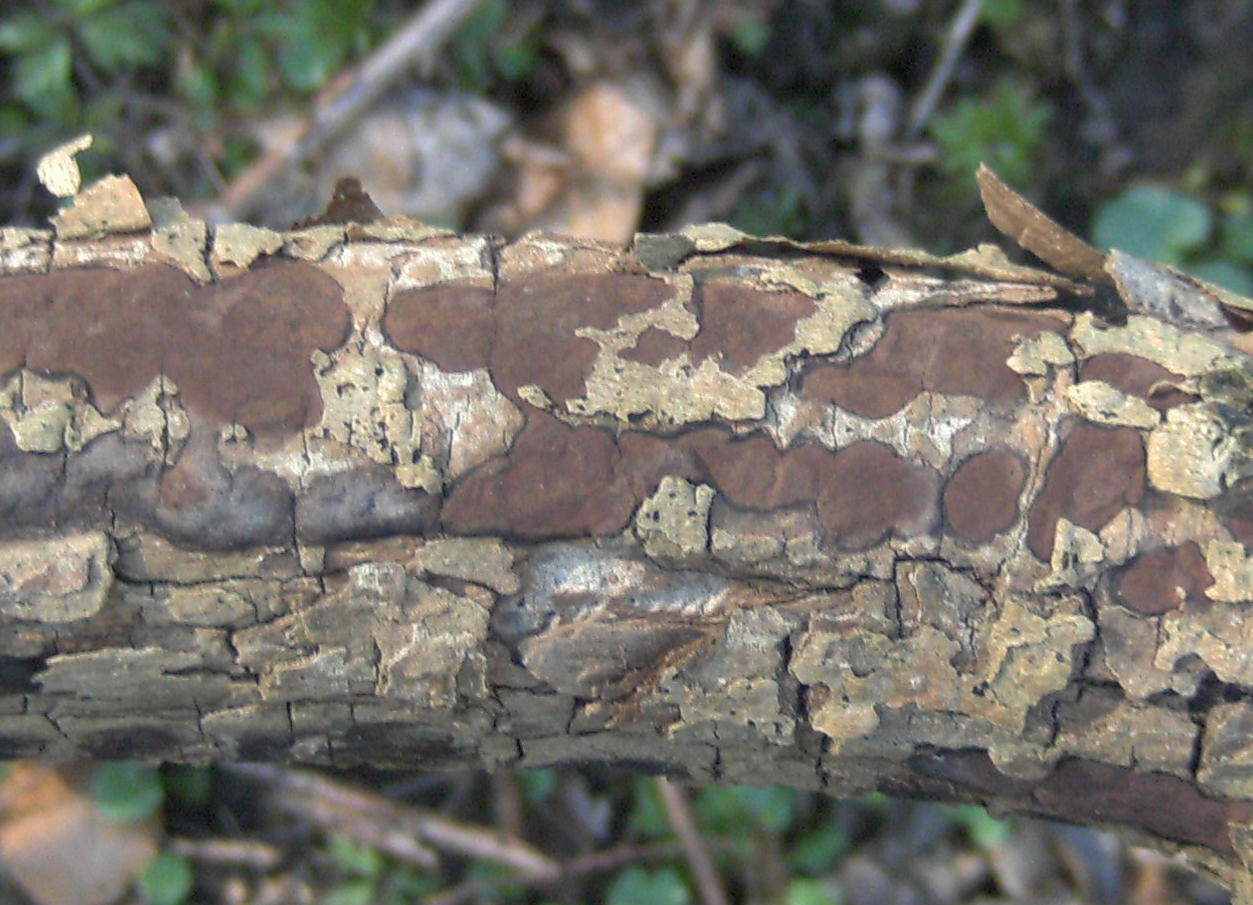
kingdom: Fungi
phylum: Ascomycota
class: Sordariomycetes
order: Xylariales
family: Hypoxylaceae
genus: Hypoxylon
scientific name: Hypoxylon petriniae
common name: nedsænket kulbær
